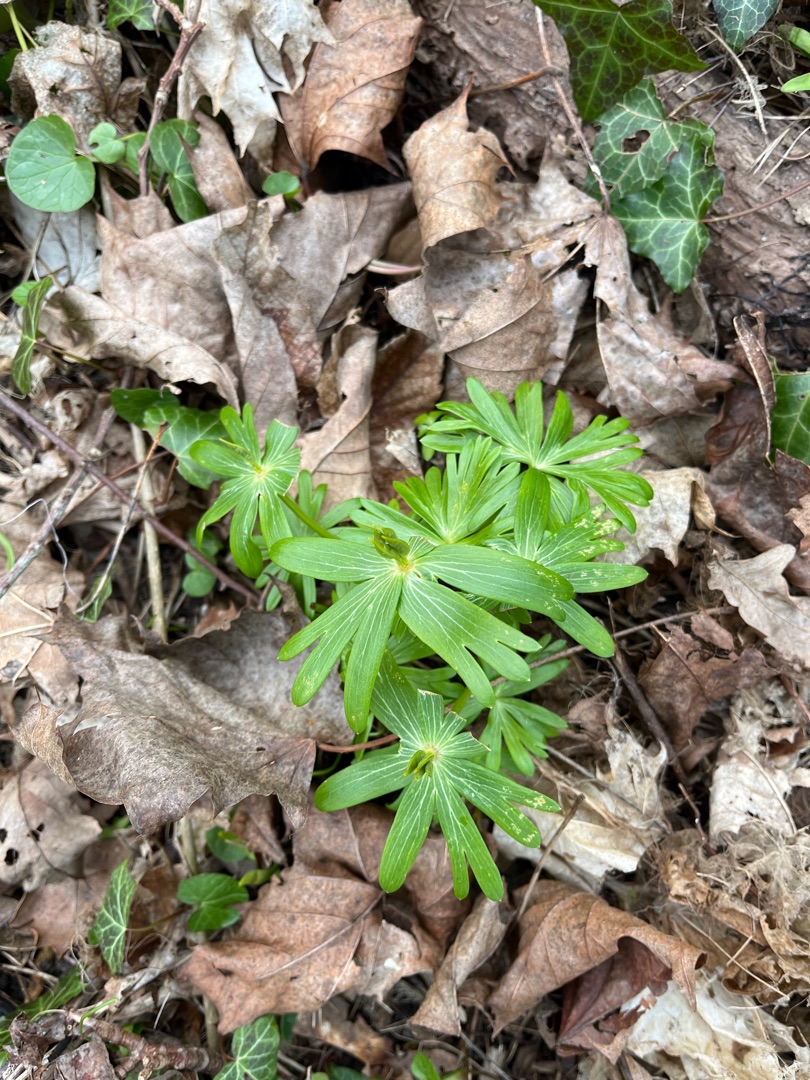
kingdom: Plantae
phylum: Tracheophyta
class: Magnoliopsida
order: Ranunculales
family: Ranunculaceae
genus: Eranthis
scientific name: Eranthis hyemalis
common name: Erantis
